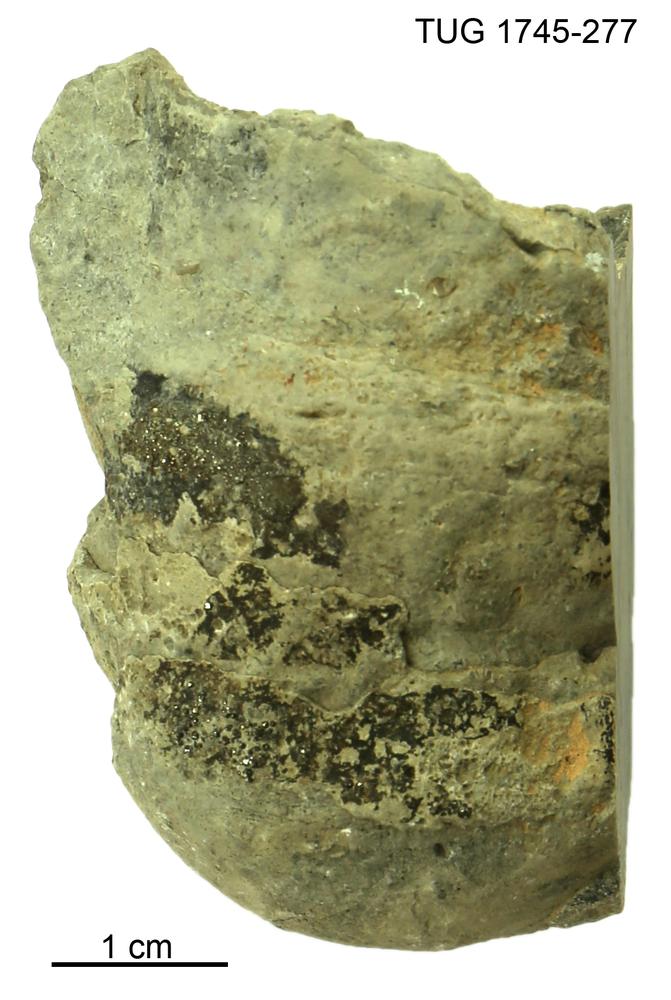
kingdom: Animalia
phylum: Mollusca
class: Cephalopoda
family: Endoceratidae
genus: Endoceras
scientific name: Endoceras
